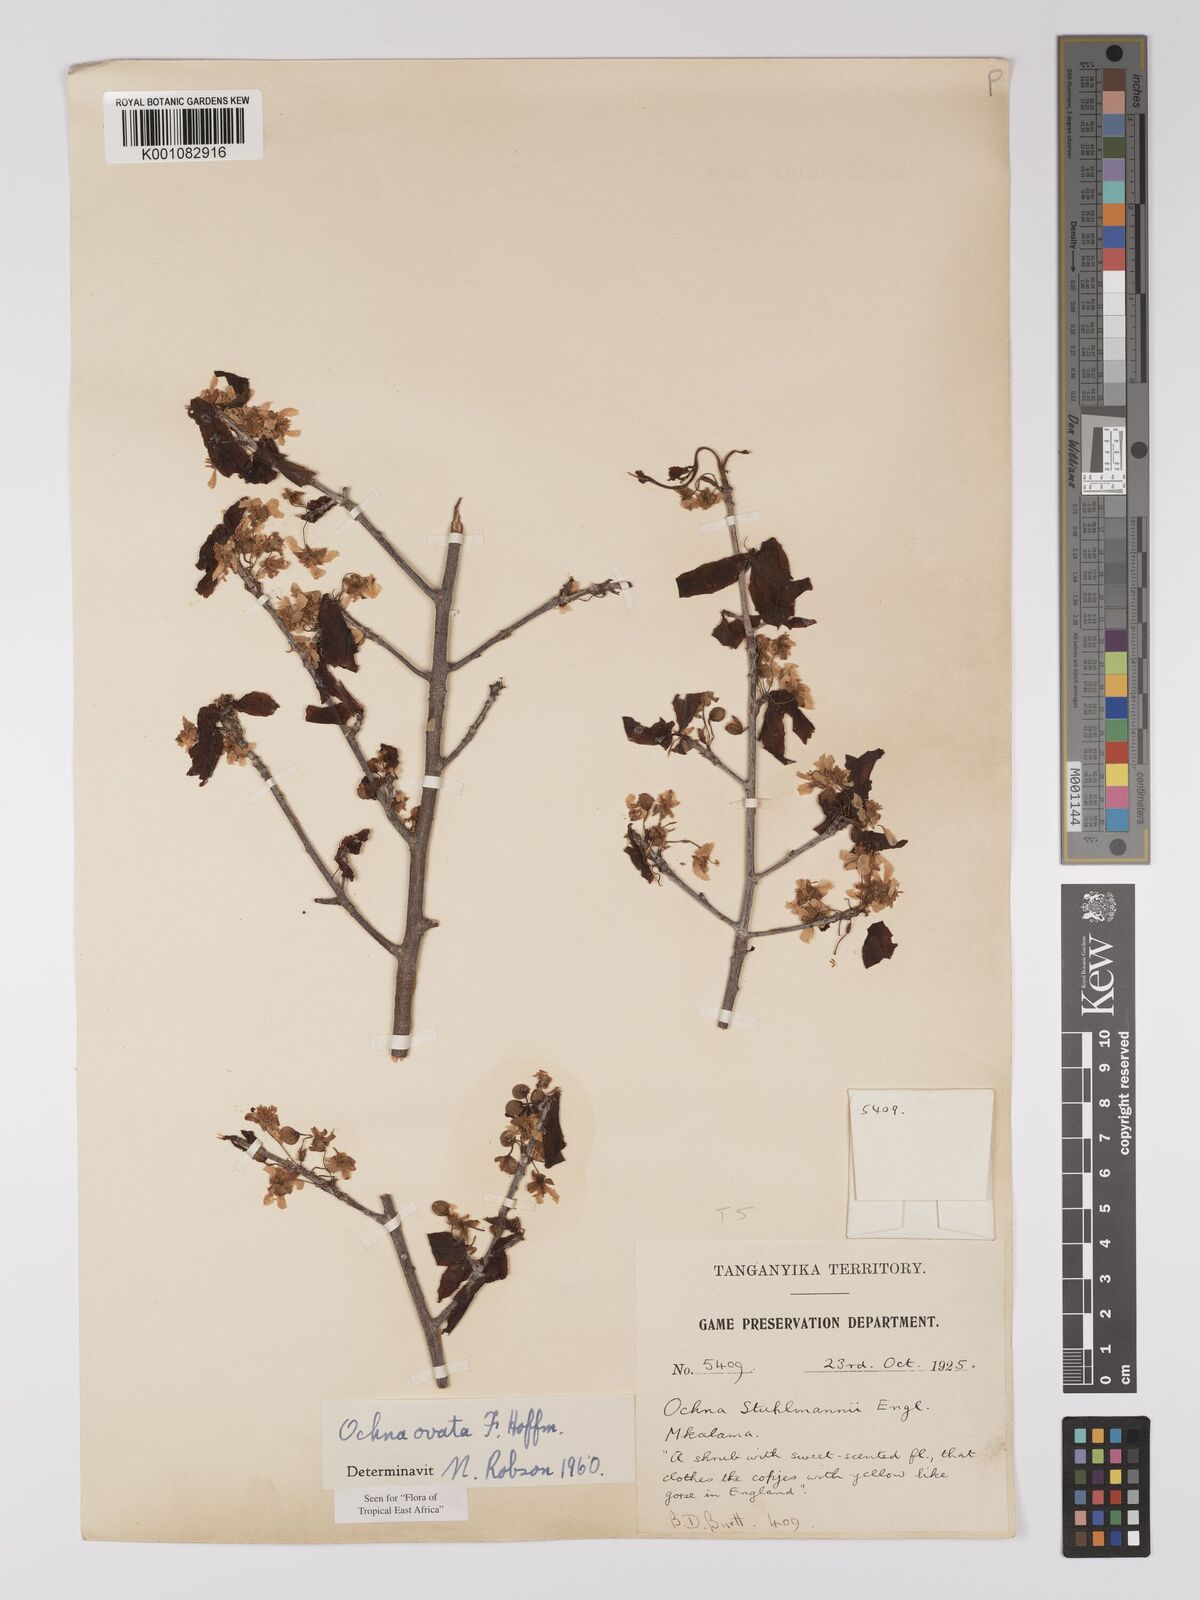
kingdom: Plantae
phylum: Tracheophyta
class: Magnoliopsida
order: Malpighiales
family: Ochnaceae
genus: Ochna
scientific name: Ochna ovata
